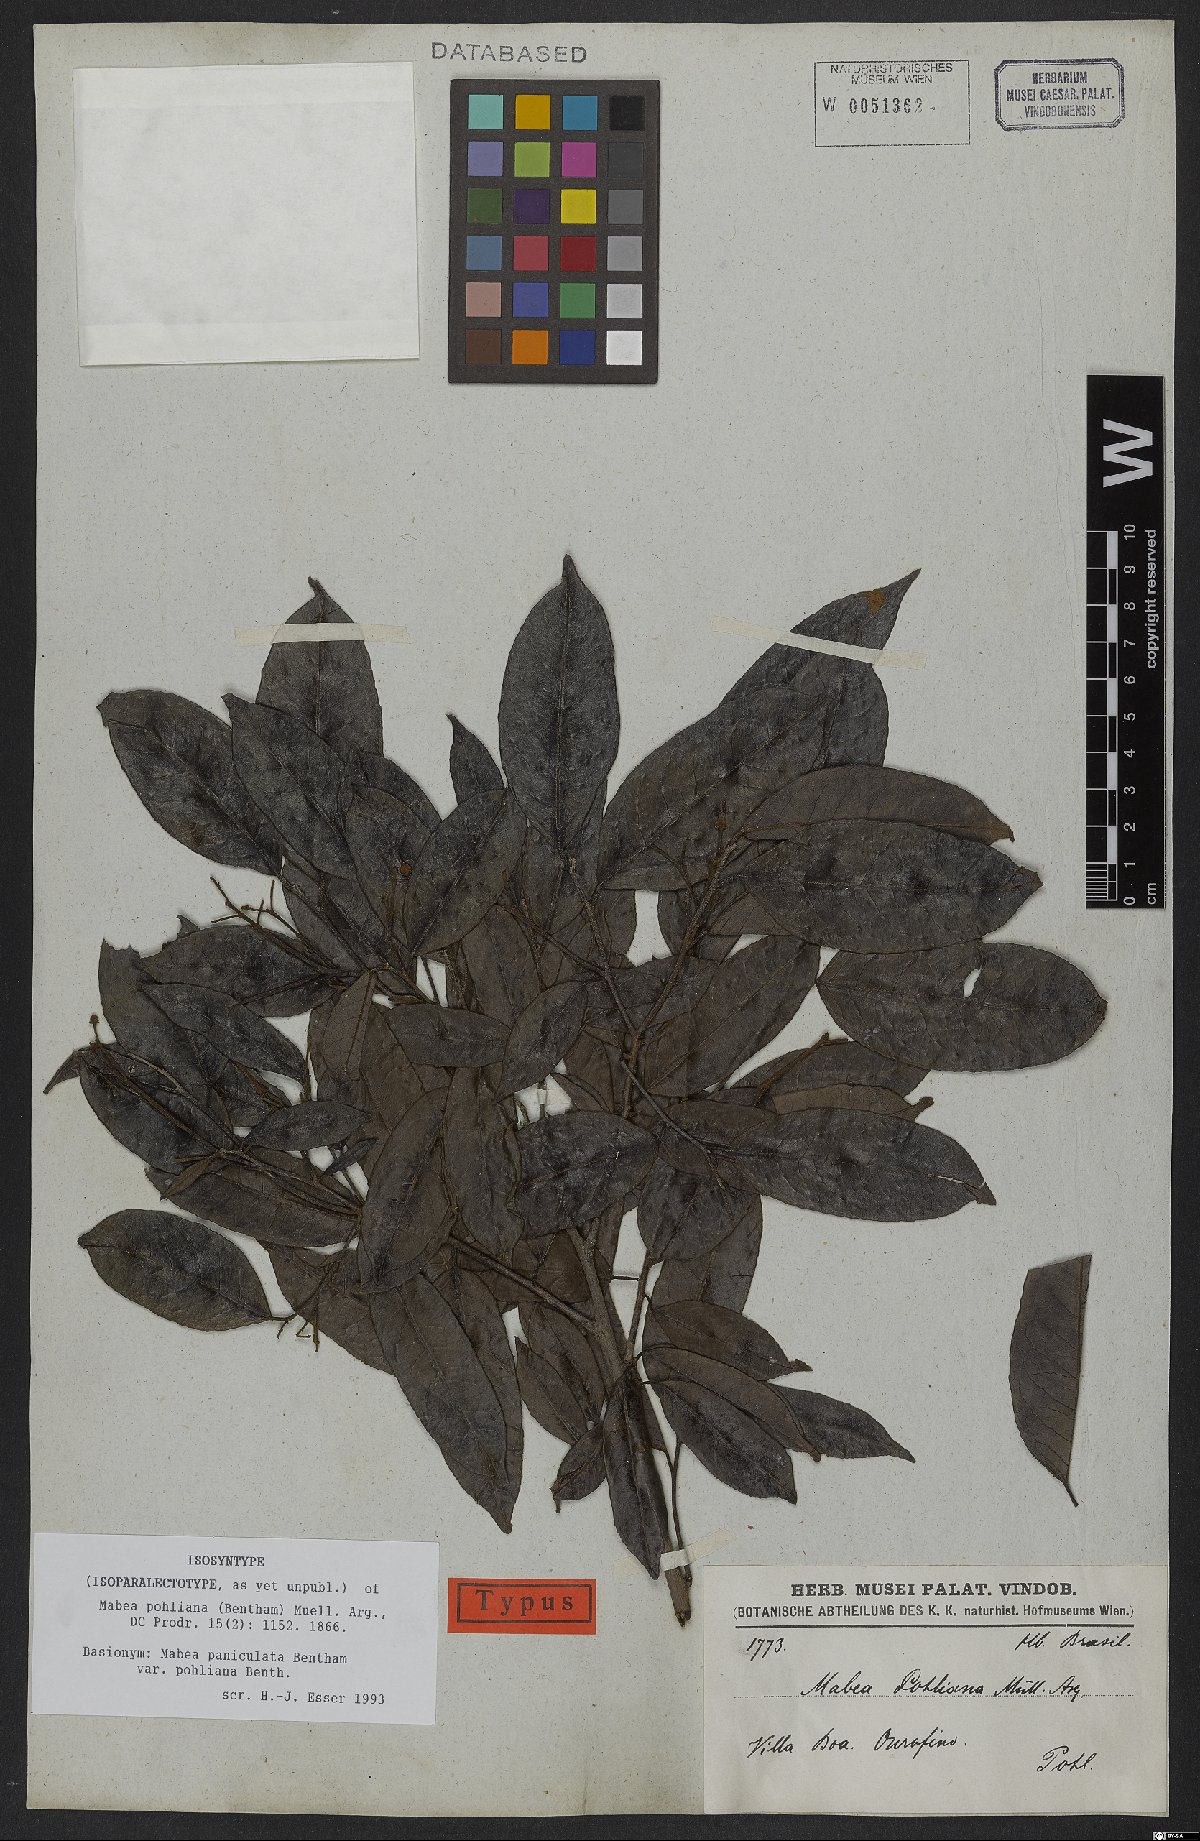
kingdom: Plantae
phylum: Tracheophyta
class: Magnoliopsida
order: Malpighiales
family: Euphorbiaceae
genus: Mabea
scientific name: Mabea pohliana
